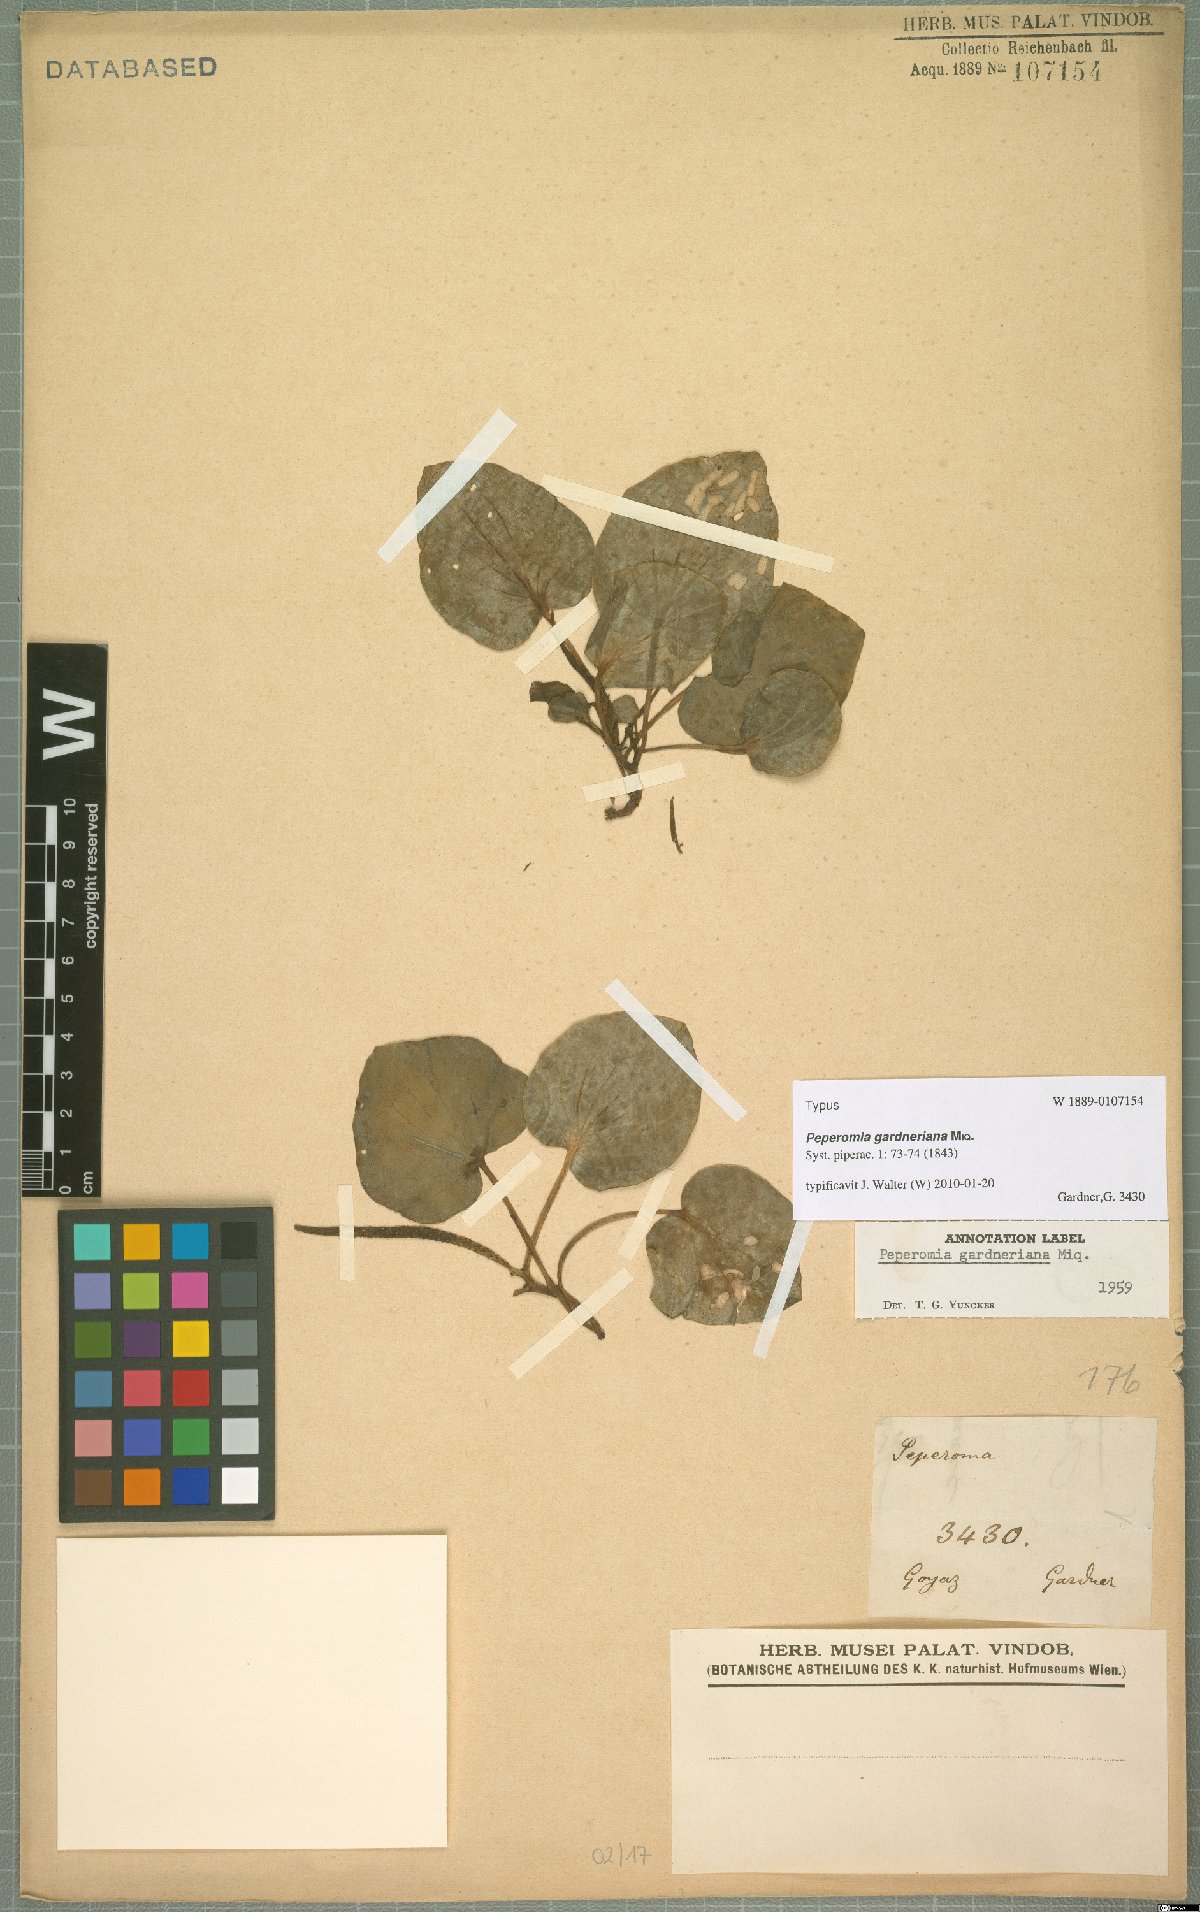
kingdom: Plantae
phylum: Tracheophyta
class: Magnoliopsida
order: Piperales
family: Piperaceae
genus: Peperomia
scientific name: Peperomia gardneriana
